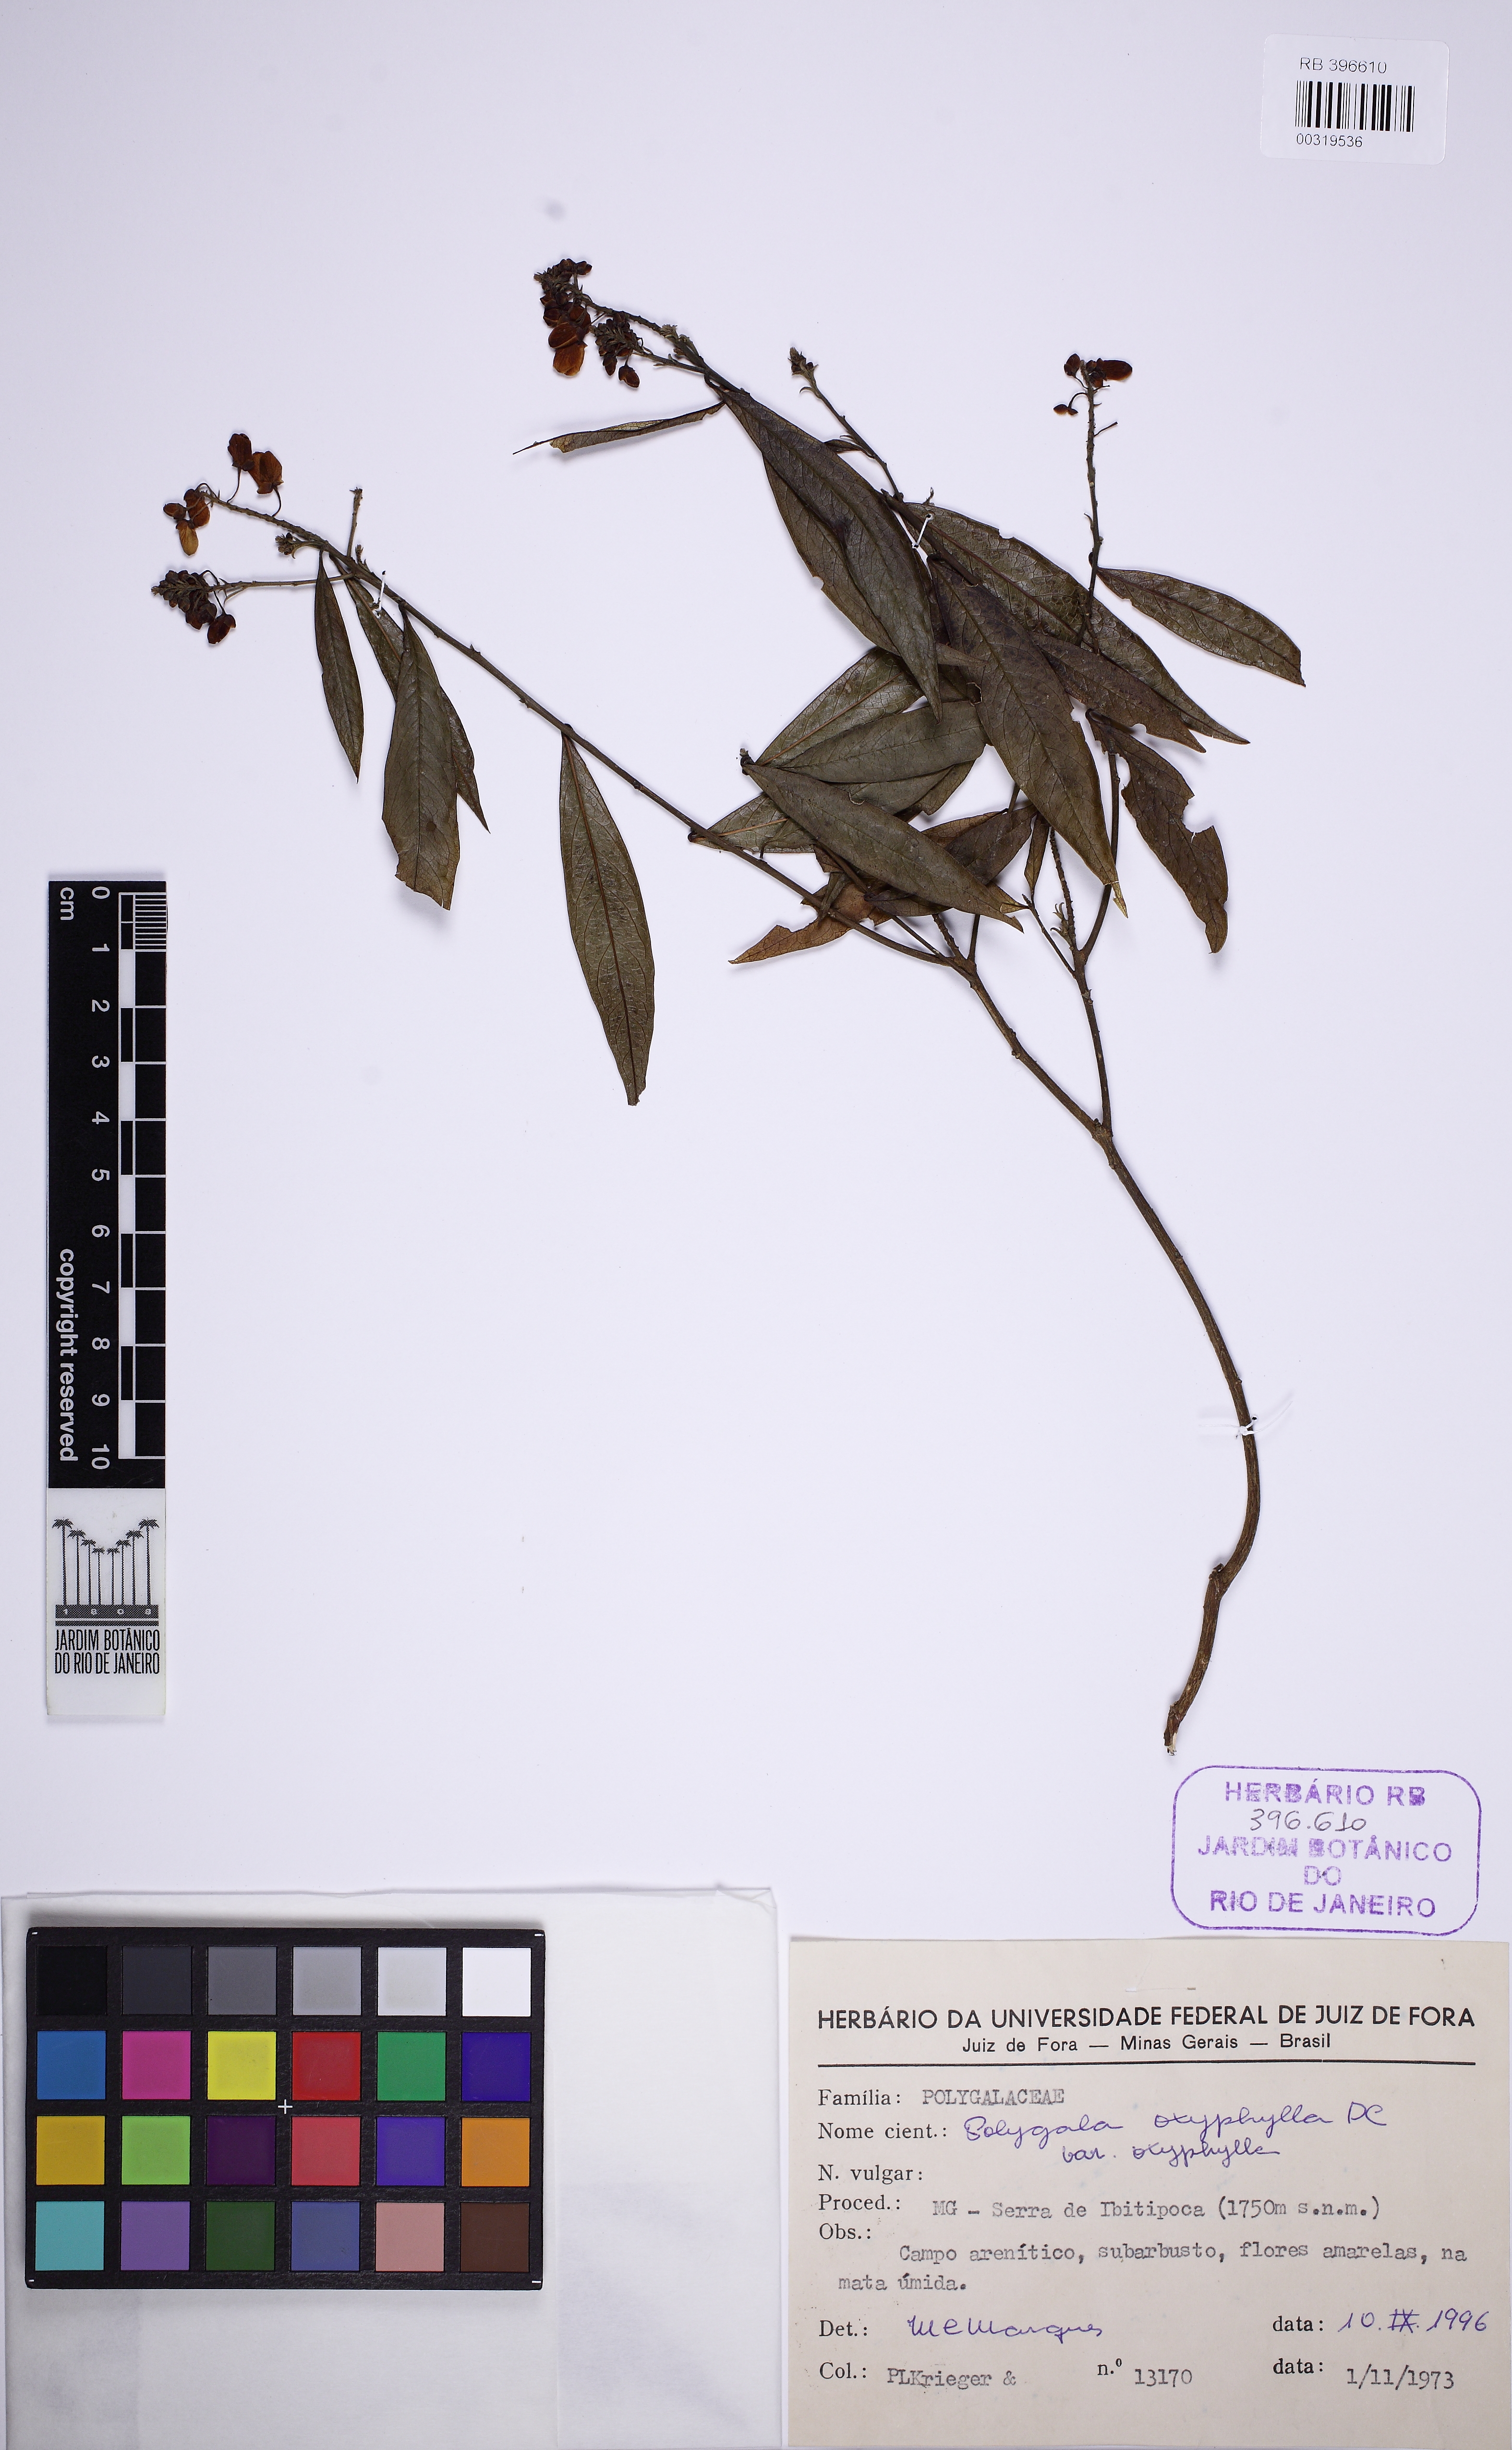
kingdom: Plantae
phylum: Tracheophyta
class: Magnoliopsida
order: Fabales
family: Polygalaceae
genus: Caamembeca
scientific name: Caamembeca
